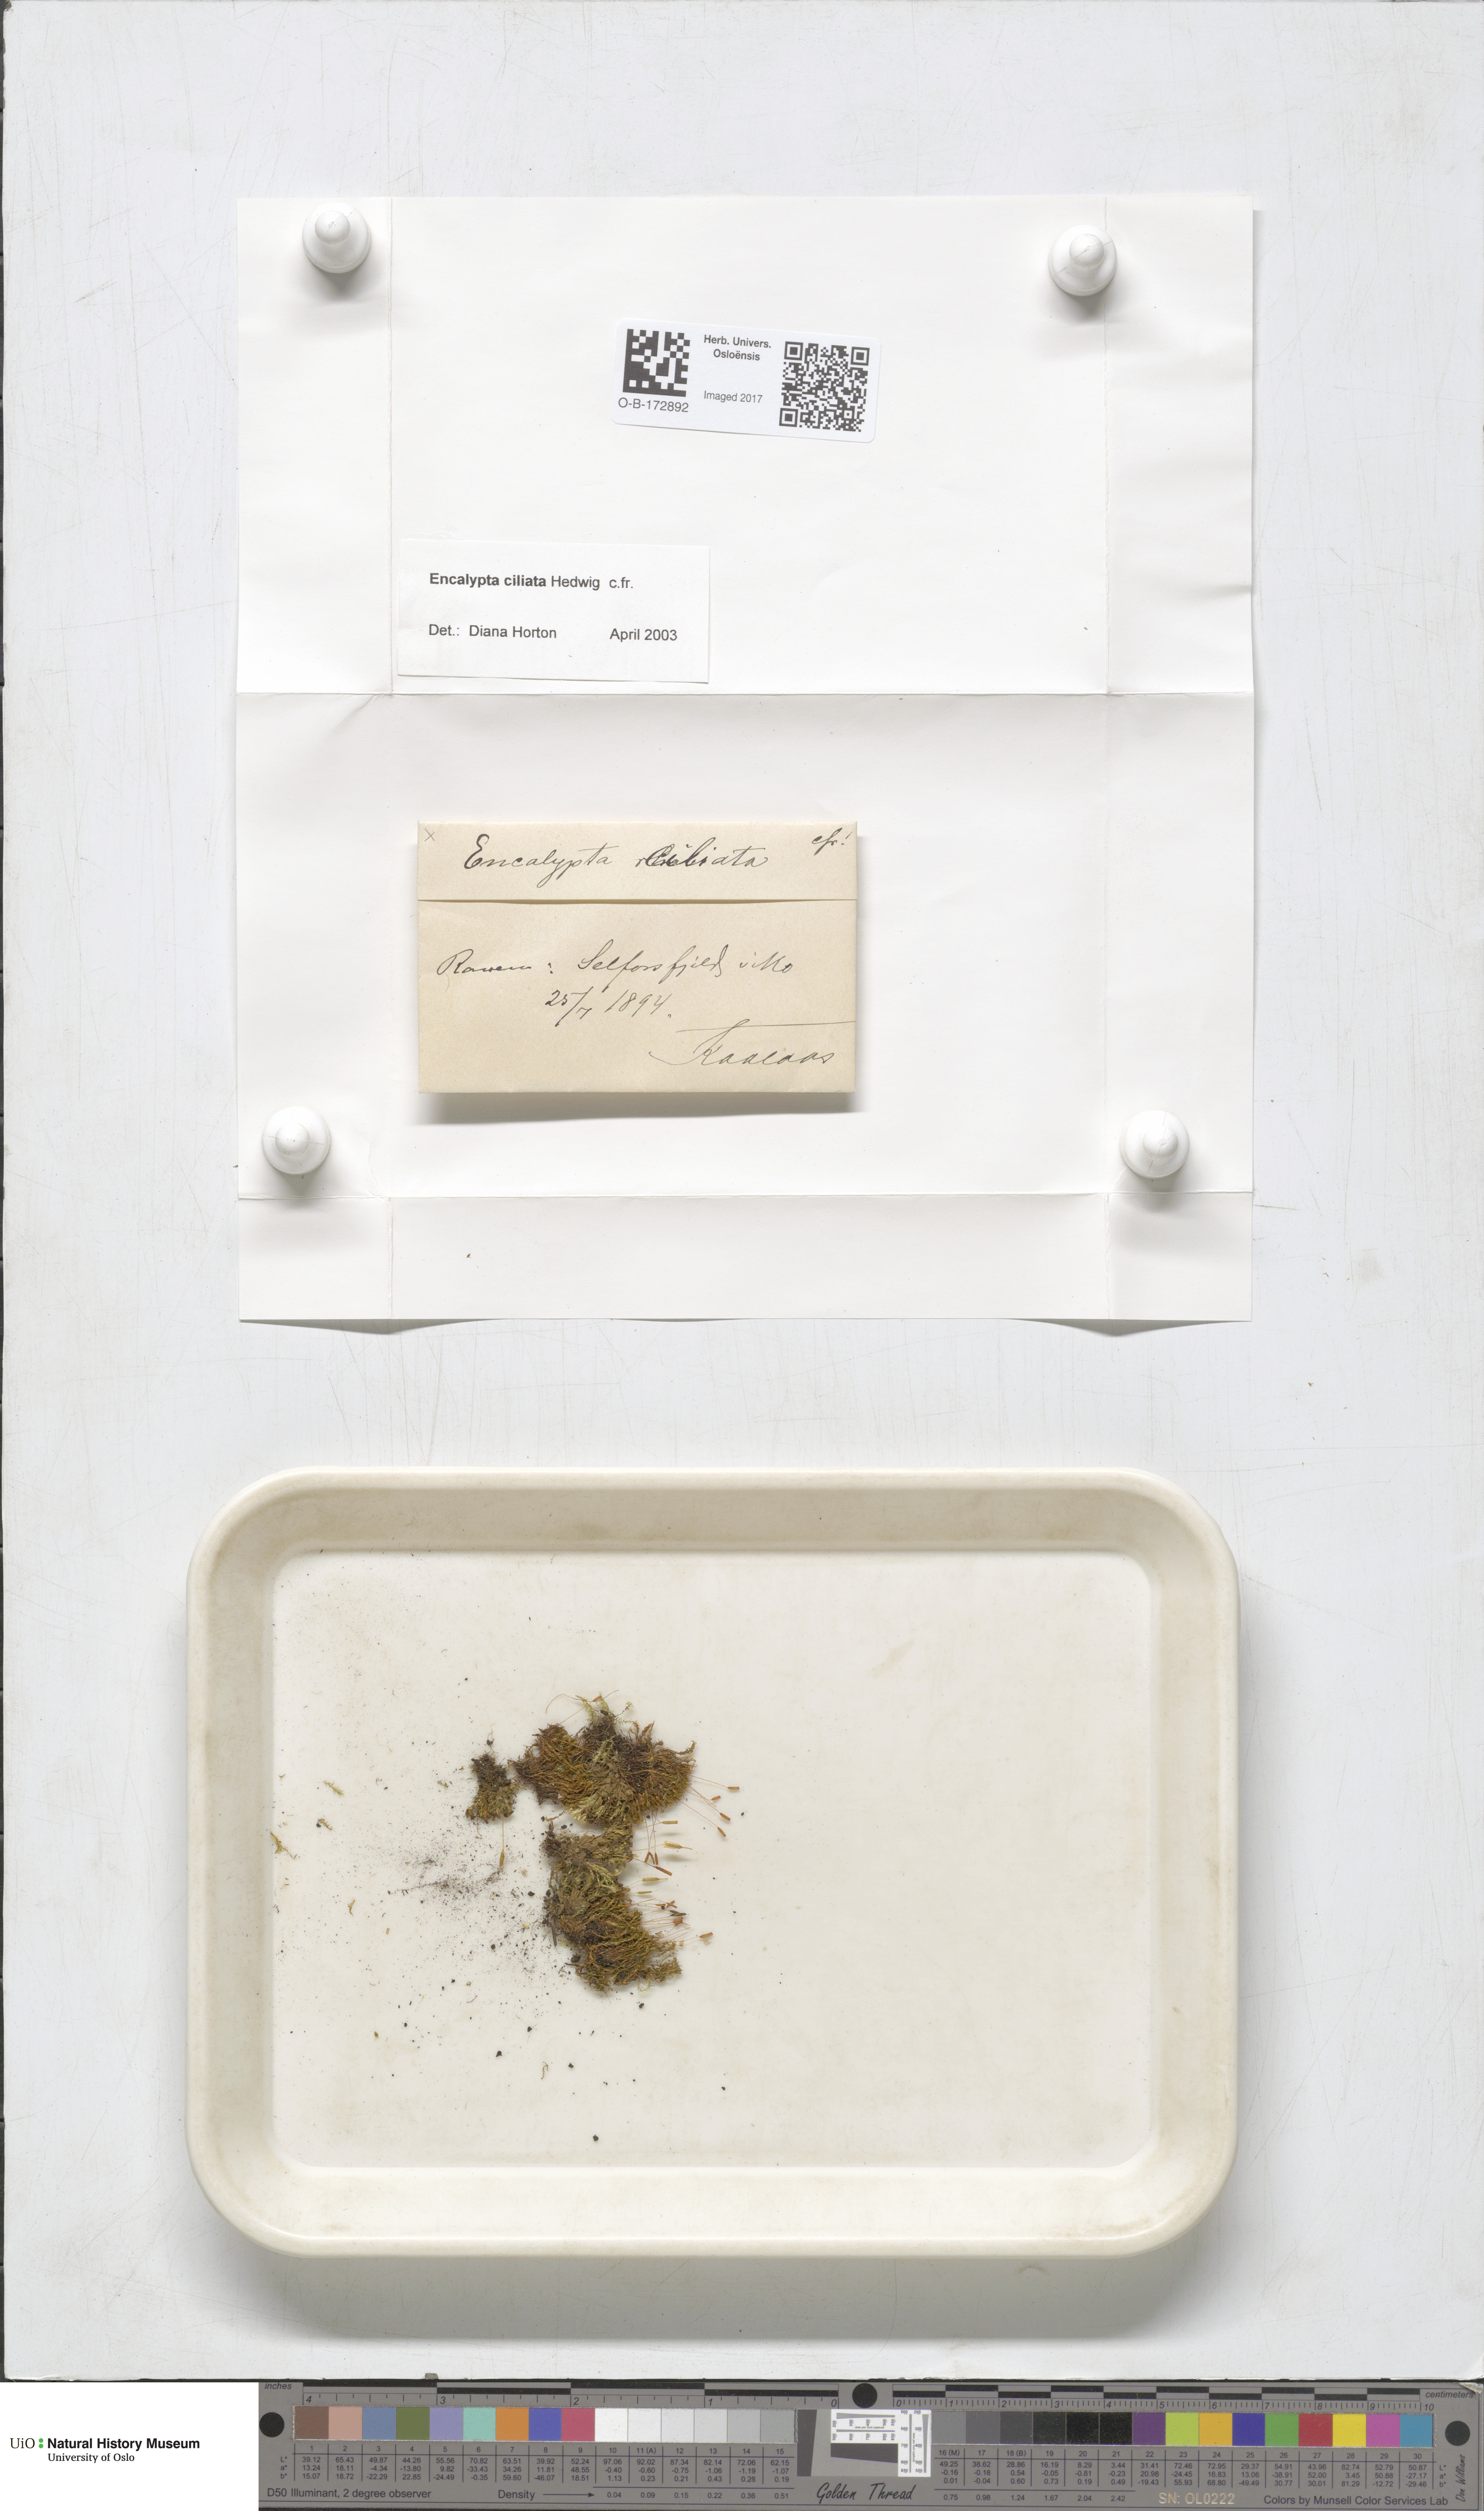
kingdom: Plantae
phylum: Bryophyta
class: Bryopsida
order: Encalyptales
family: Encalyptaceae
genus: Encalypta
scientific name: Encalypta ciliata
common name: Fringed extinguisher-moss
